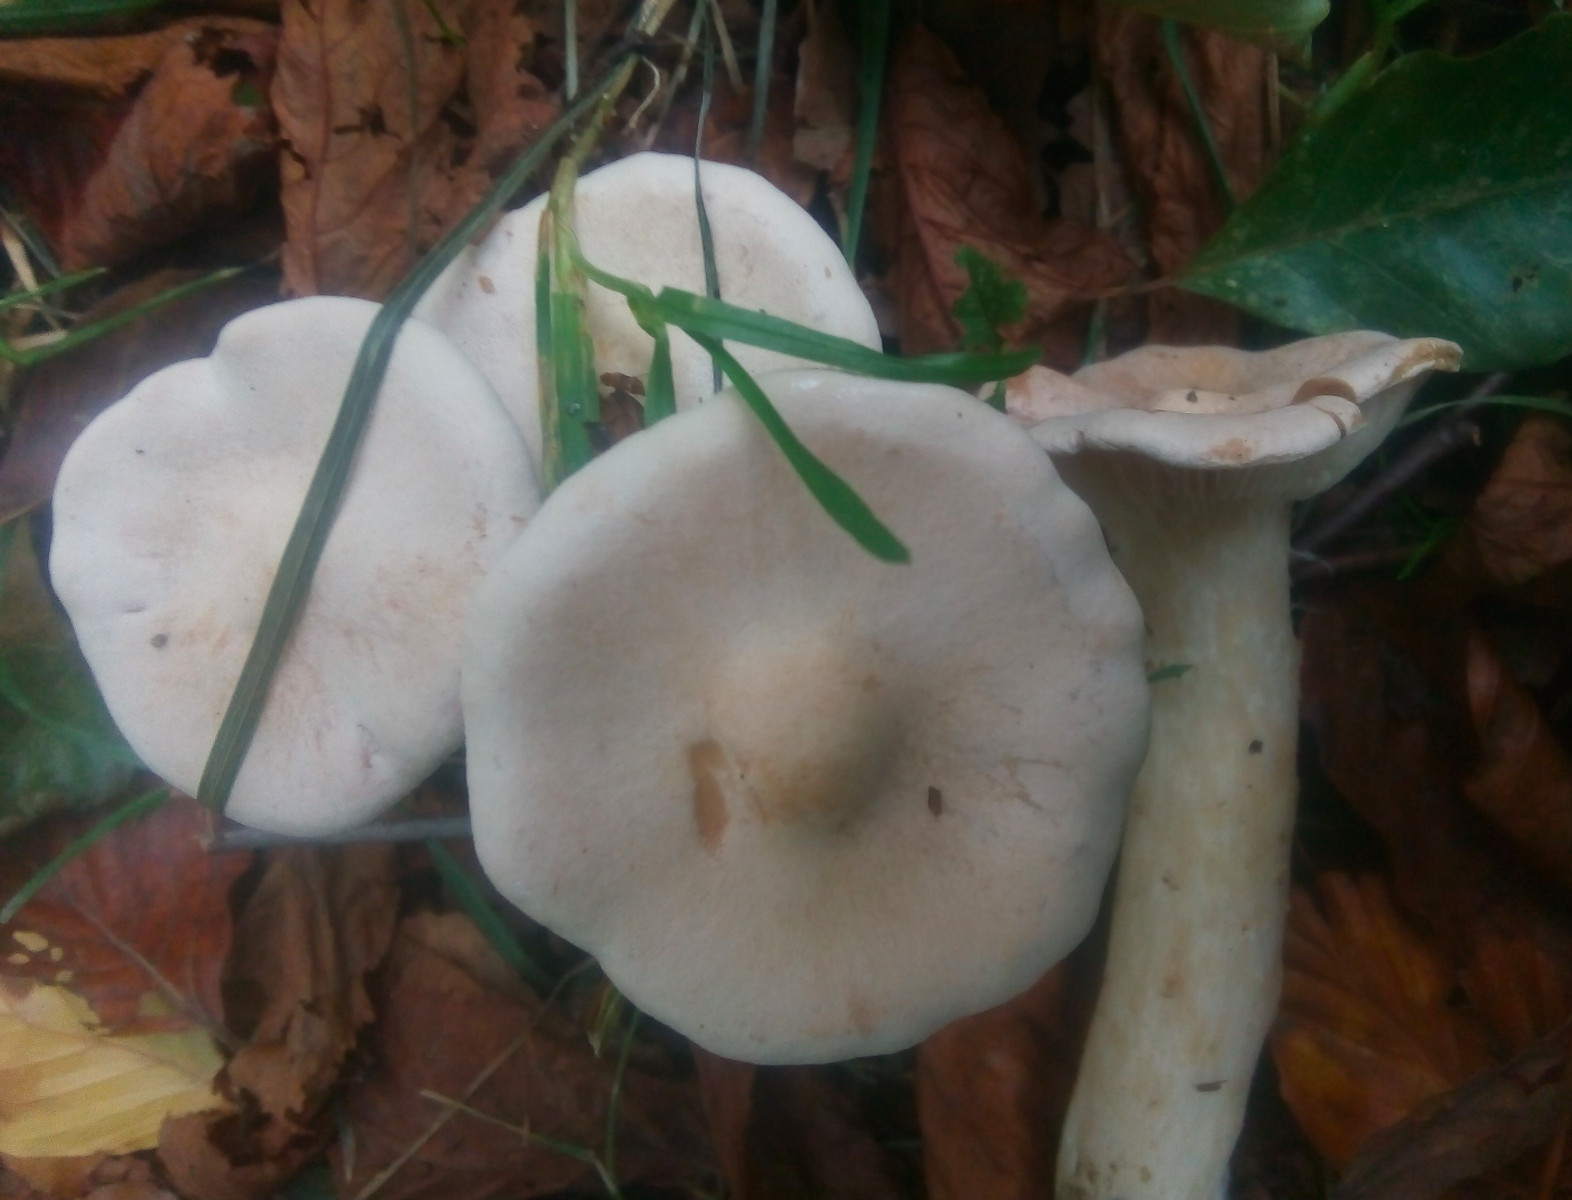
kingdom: Fungi
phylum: Basidiomycota
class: Agaricomycetes
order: Agaricales
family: Tricholomataceae
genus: Infundibulicybe
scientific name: Infundibulicybe geotropa
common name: stor tragthat
